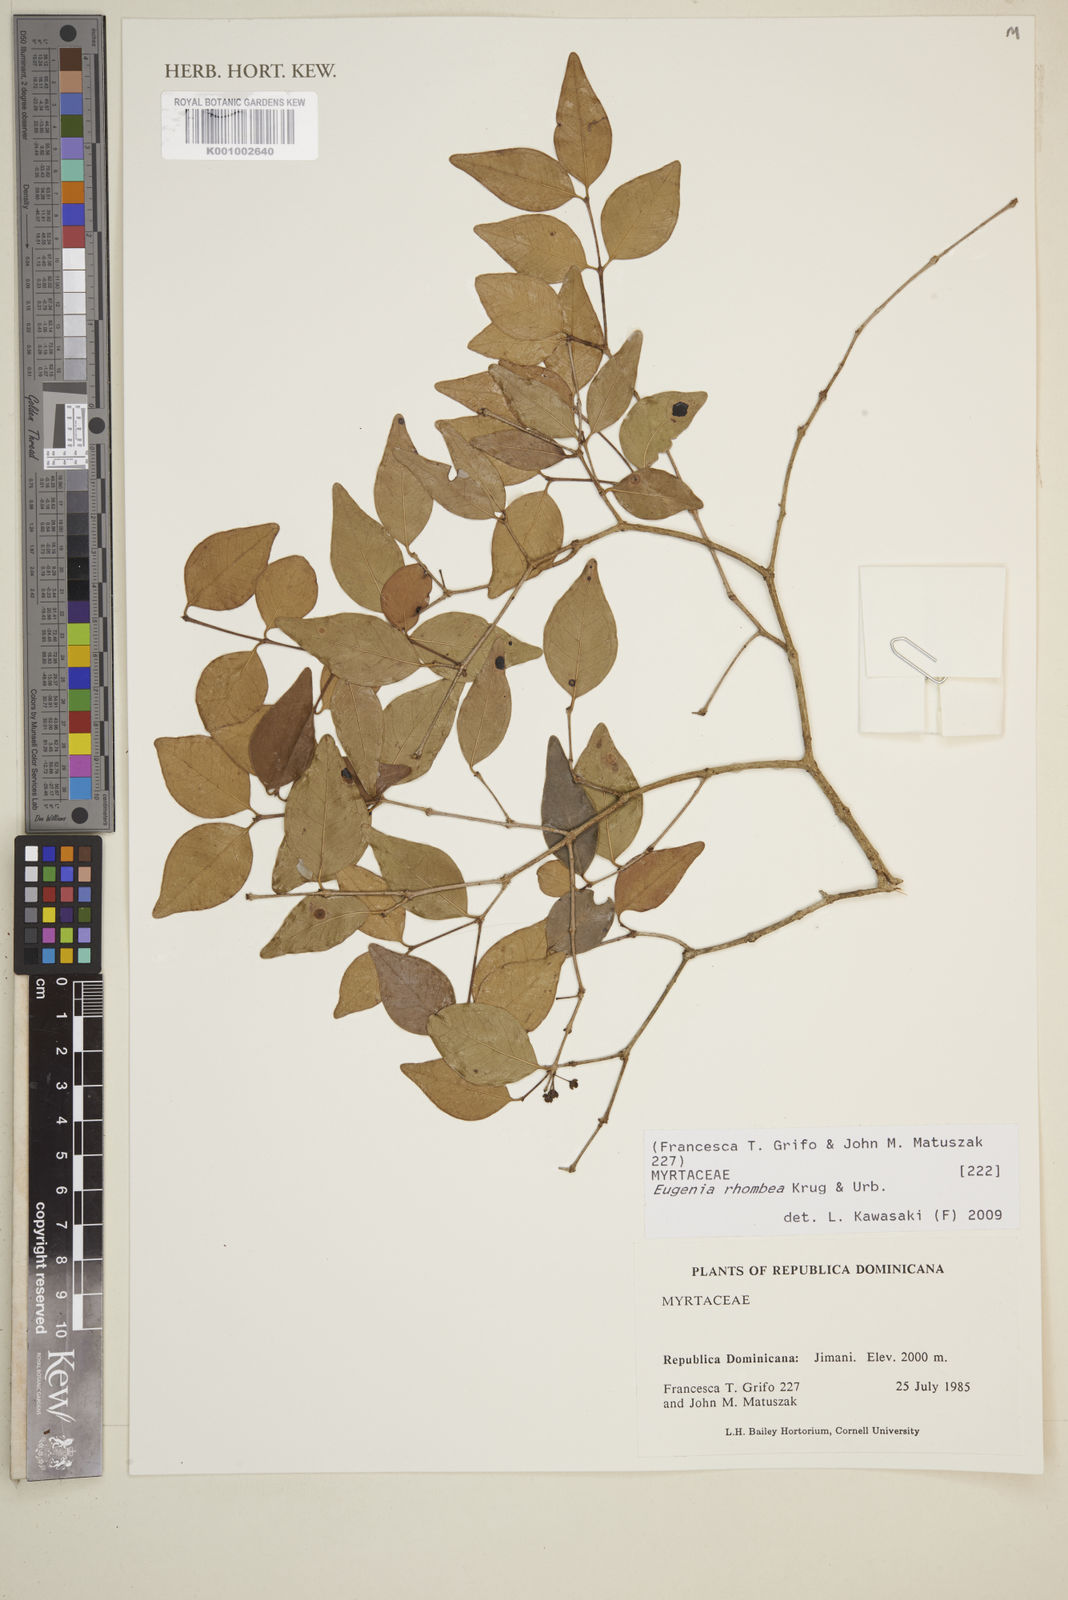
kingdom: Plantae
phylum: Tracheophyta
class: Magnoliopsida
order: Myrtales
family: Myrtaceae
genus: Eugenia
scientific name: Eugenia rhombea
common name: Pigeon berry
